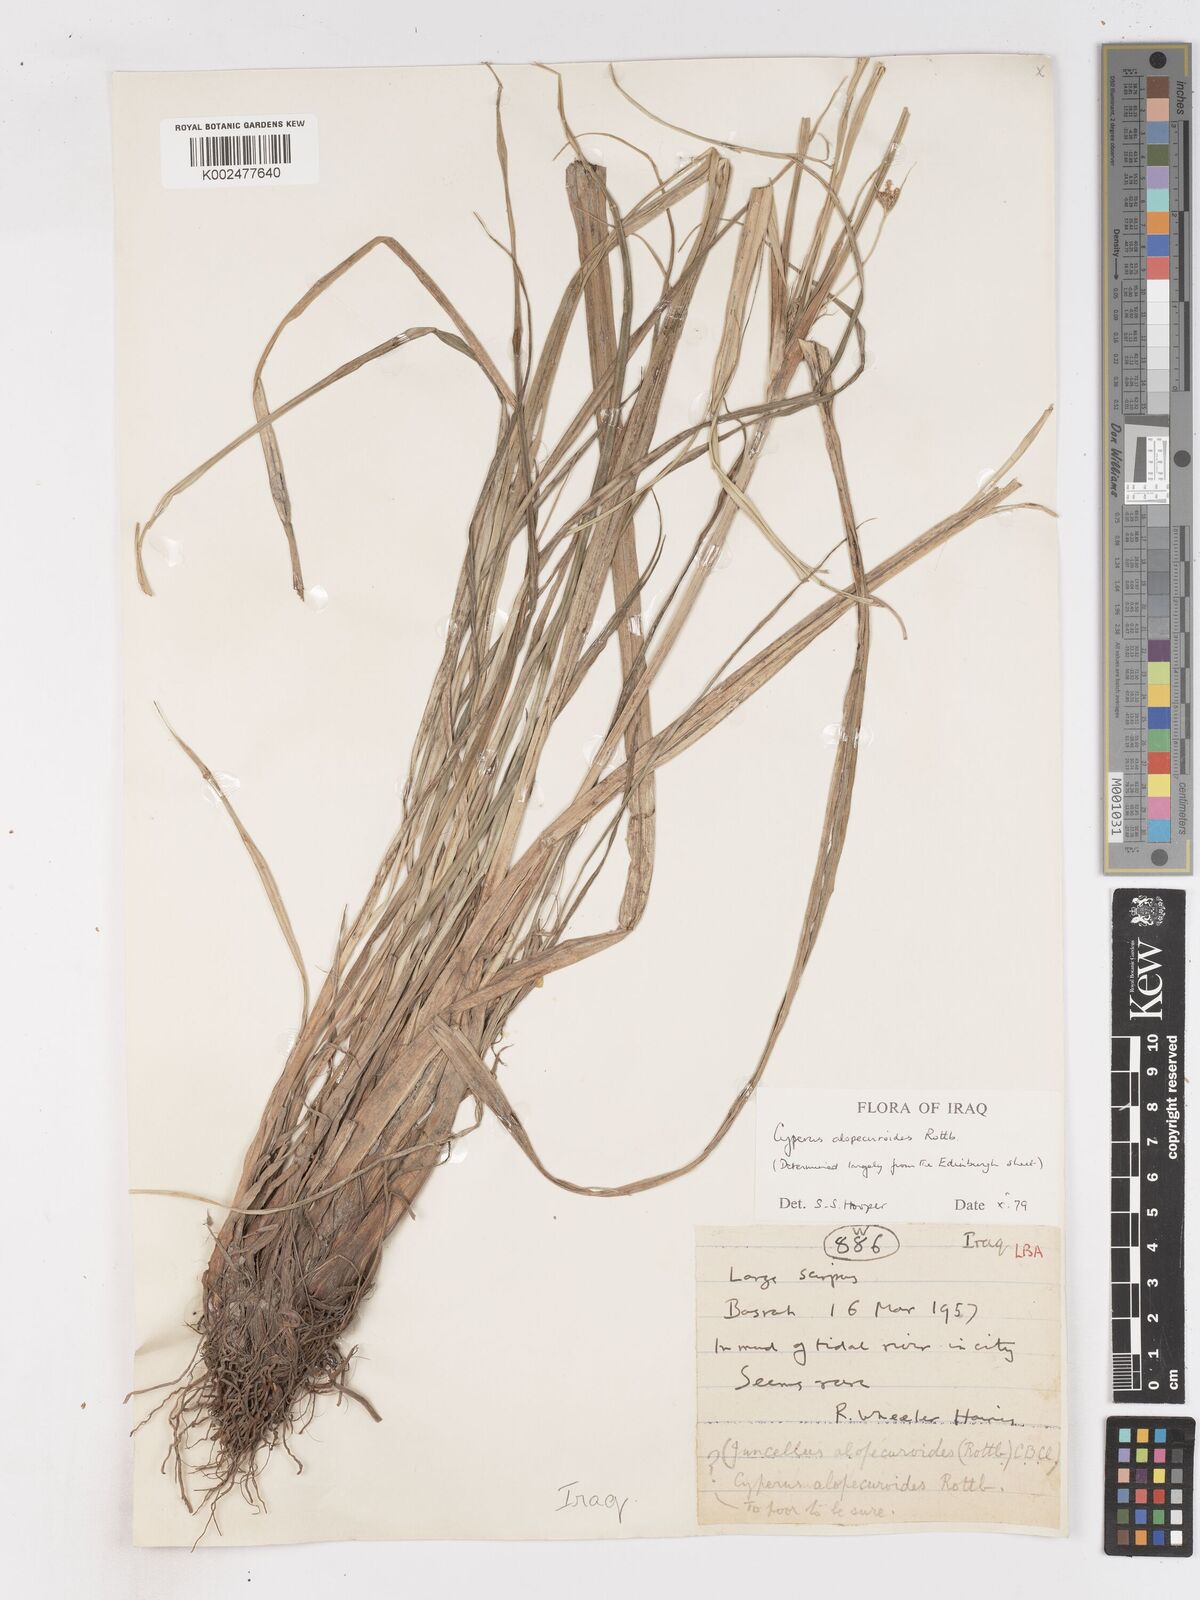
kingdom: Plantae
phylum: Tracheophyta
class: Liliopsida
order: Poales
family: Cyperaceae
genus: Cyperus
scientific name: Cyperus alopecuroides
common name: Foxtail flatsedge
